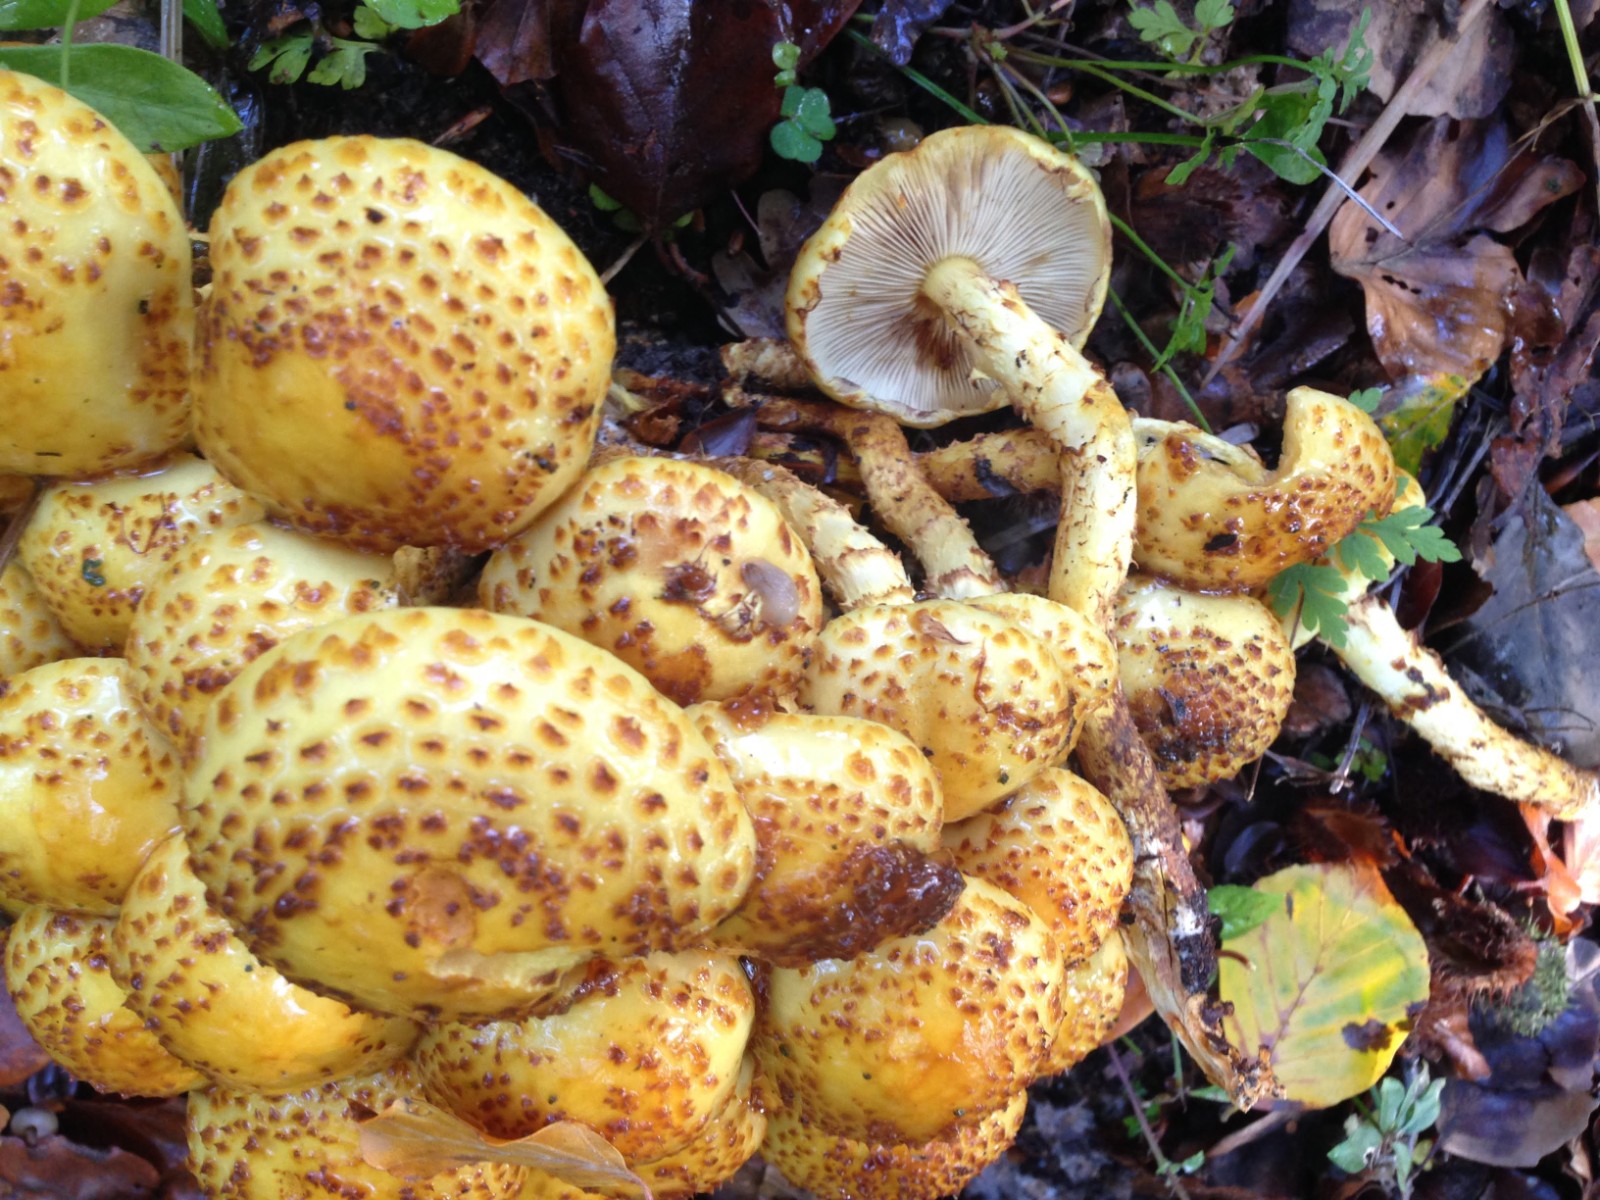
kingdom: Fungi
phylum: Basidiomycota
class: Agaricomycetes
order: Agaricales
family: Strophariaceae
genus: Pholiota
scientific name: Pholiota jahnii
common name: slimet skælhat
